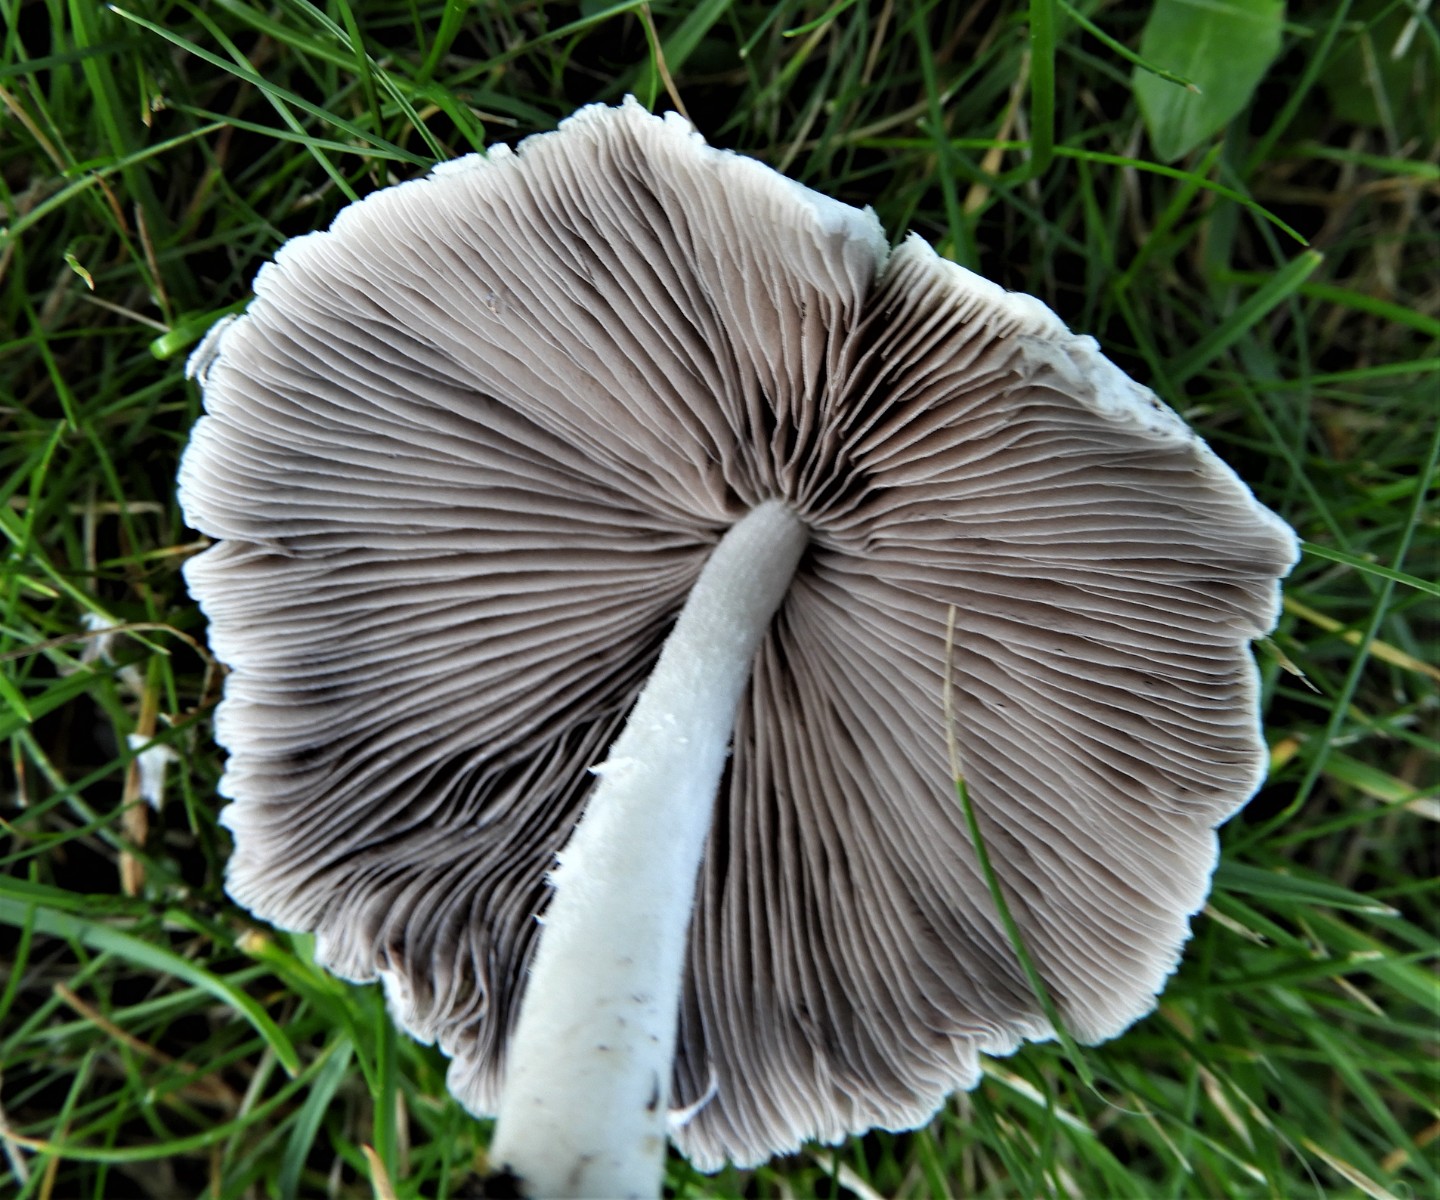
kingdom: Fungi
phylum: Basidiomycota
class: Agaricomycetes
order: Agaricales
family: Psathyrellaceae
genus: Candolleomyces
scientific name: Candolleomyces candolleanus
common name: Candolles mørkhat
